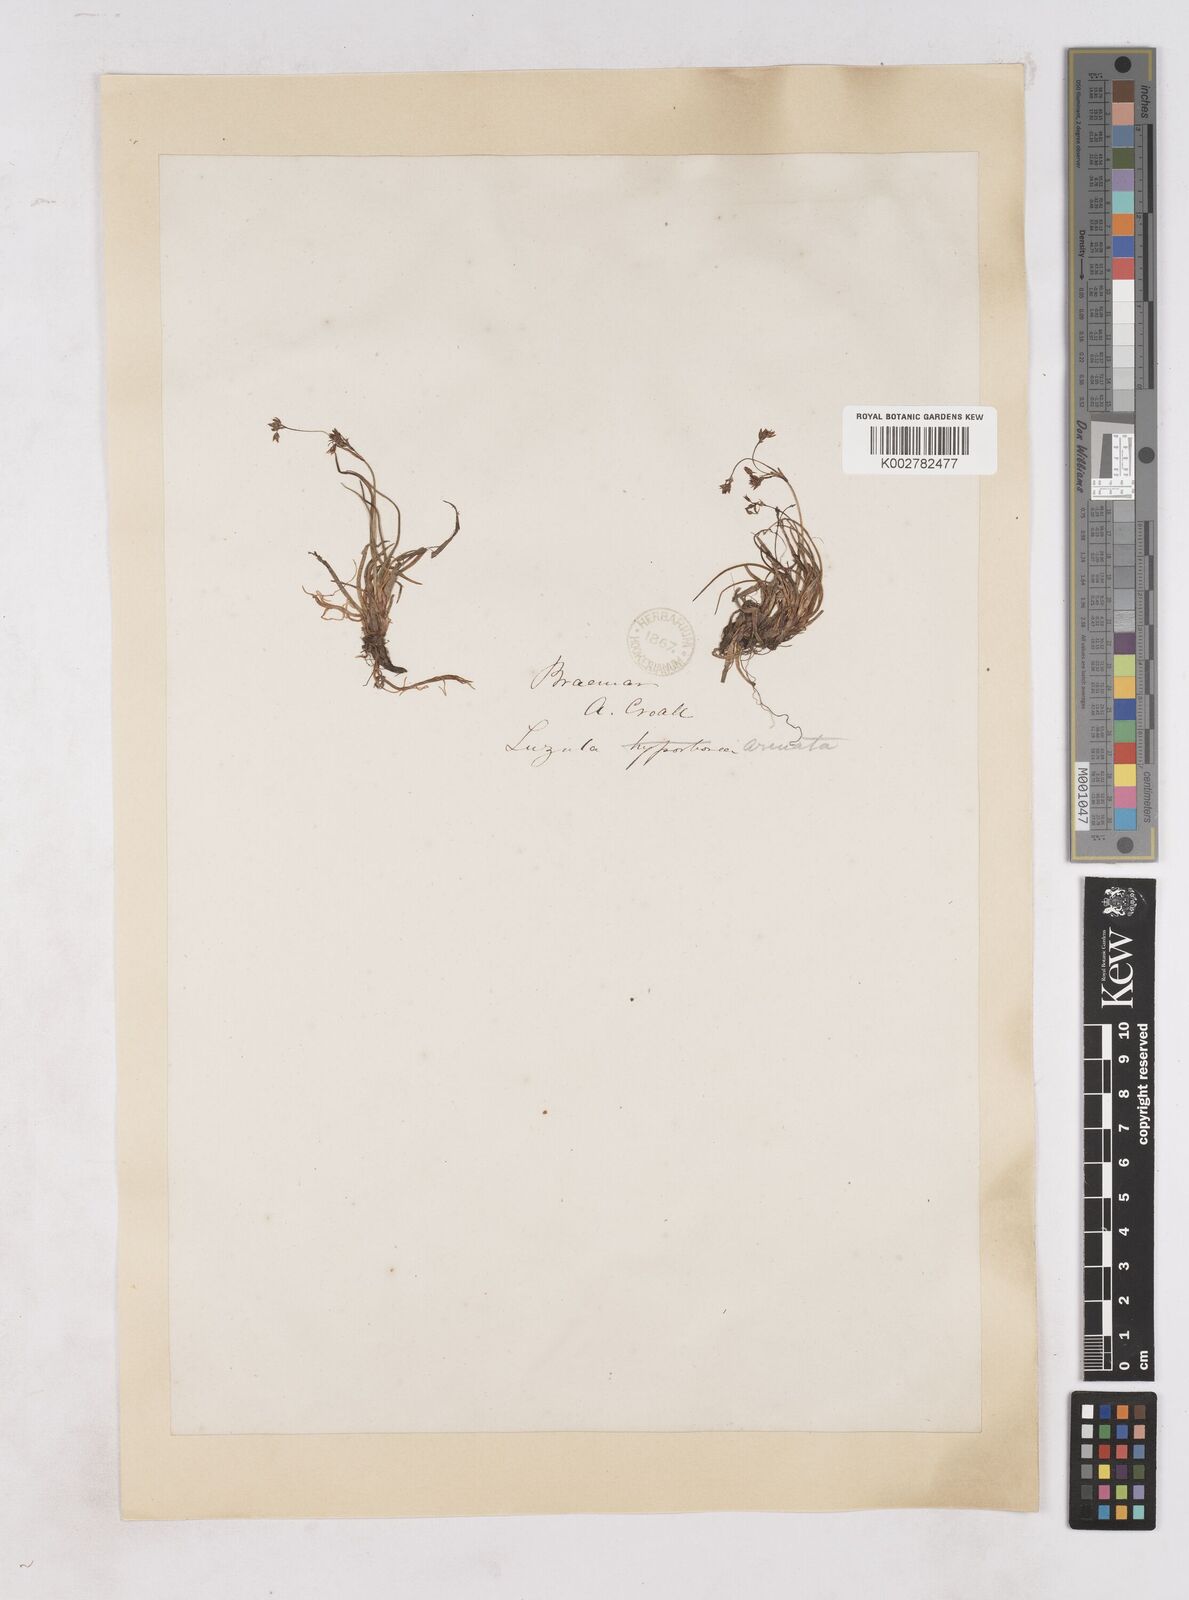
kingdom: Plantae
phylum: Tracheophyta
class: Liliopsida
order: Poales
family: Juncaceae
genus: Luzula
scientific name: Luzula arcuata
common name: Curved wood-rush
